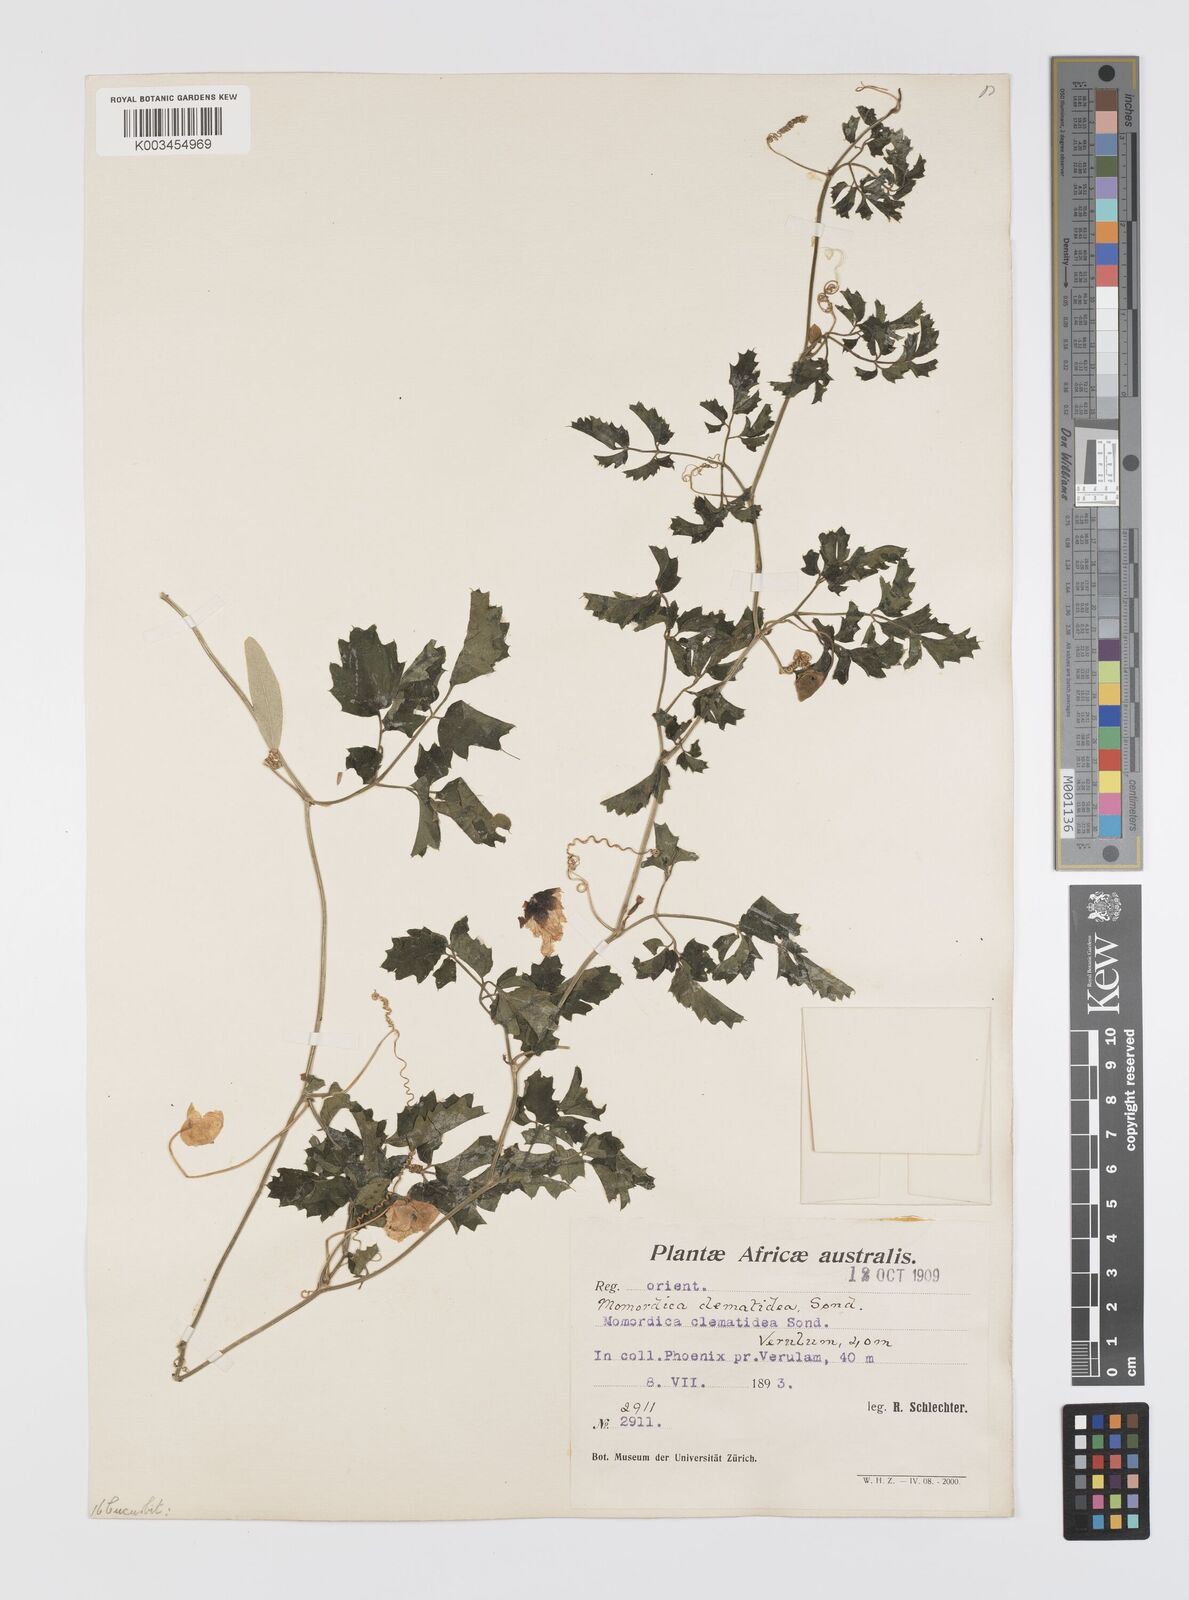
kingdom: Plantae
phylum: Tracheophyta
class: Magnoliopsida
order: Cucurbitales
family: Cucurbitaceae
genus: Momordica
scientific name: Momordica cardiospermoides
